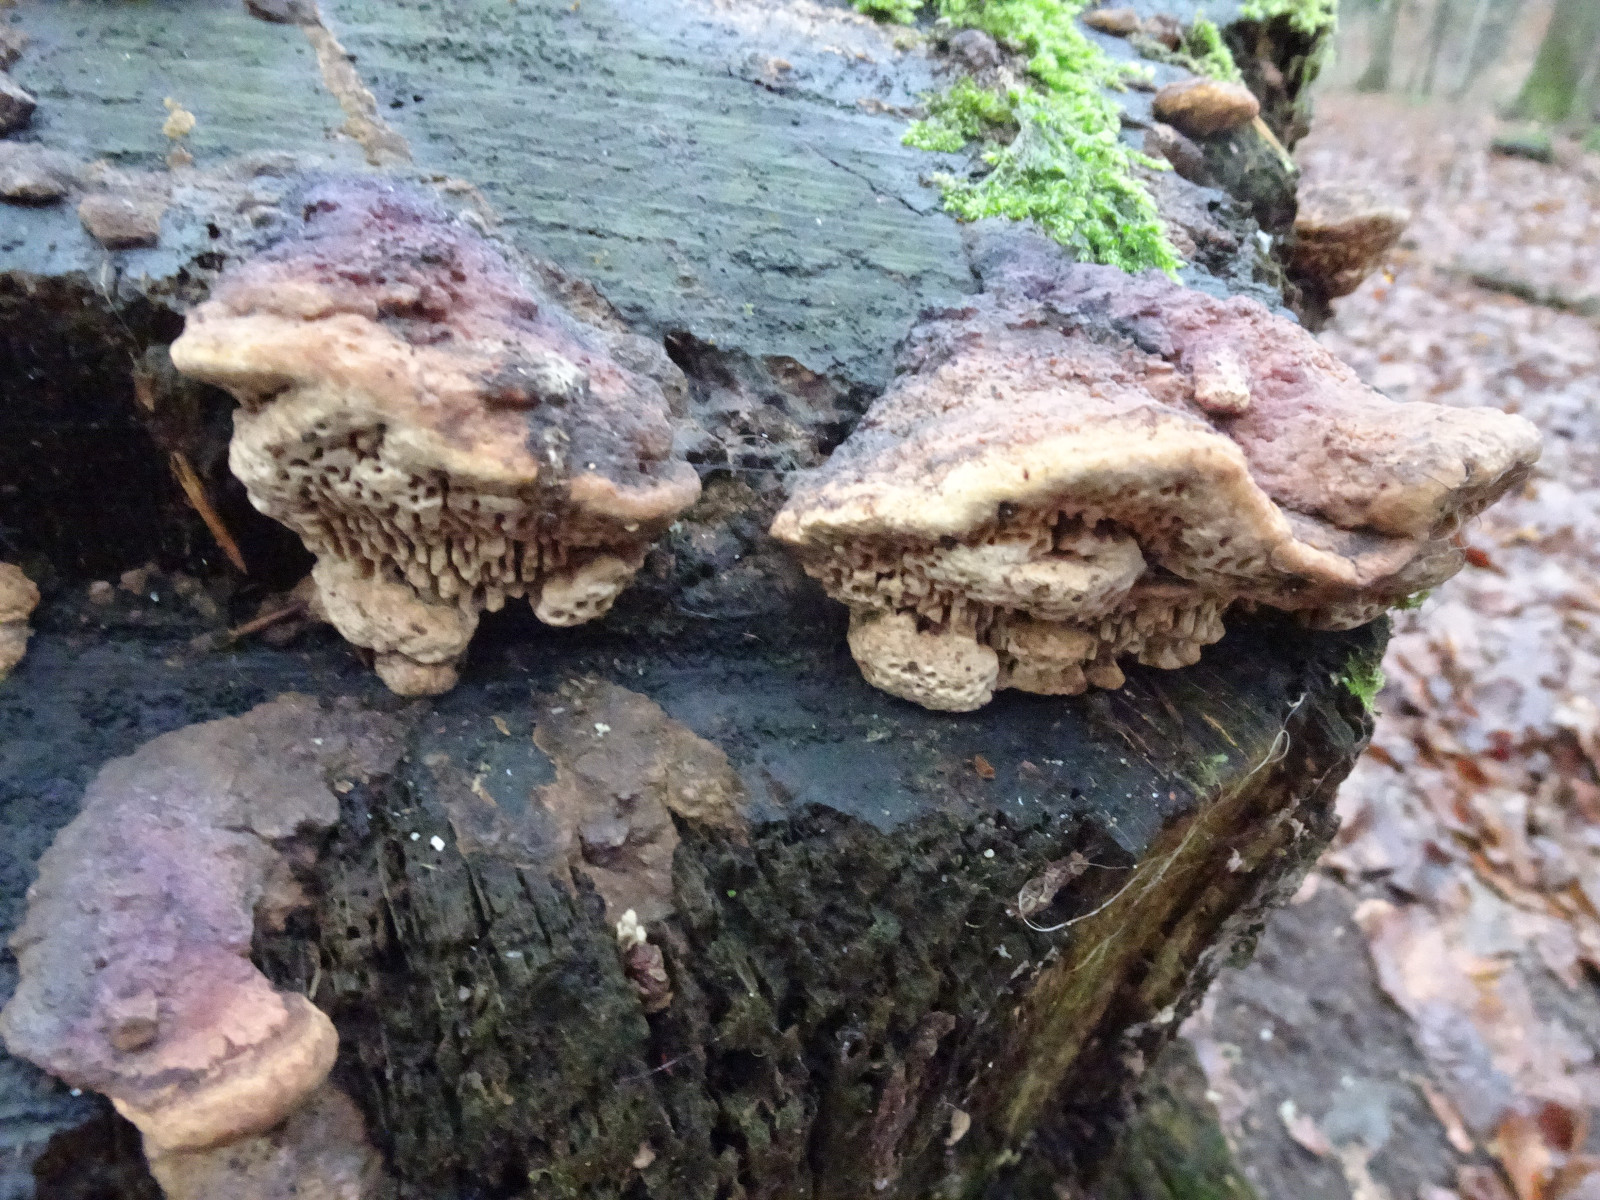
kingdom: Fungi
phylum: Basidiomycota
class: Agaricomycetes
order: Polyporales
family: Fomitopsidaceae
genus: Daedalea
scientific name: Daedalea quercina
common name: ege-labyrintsvamp
